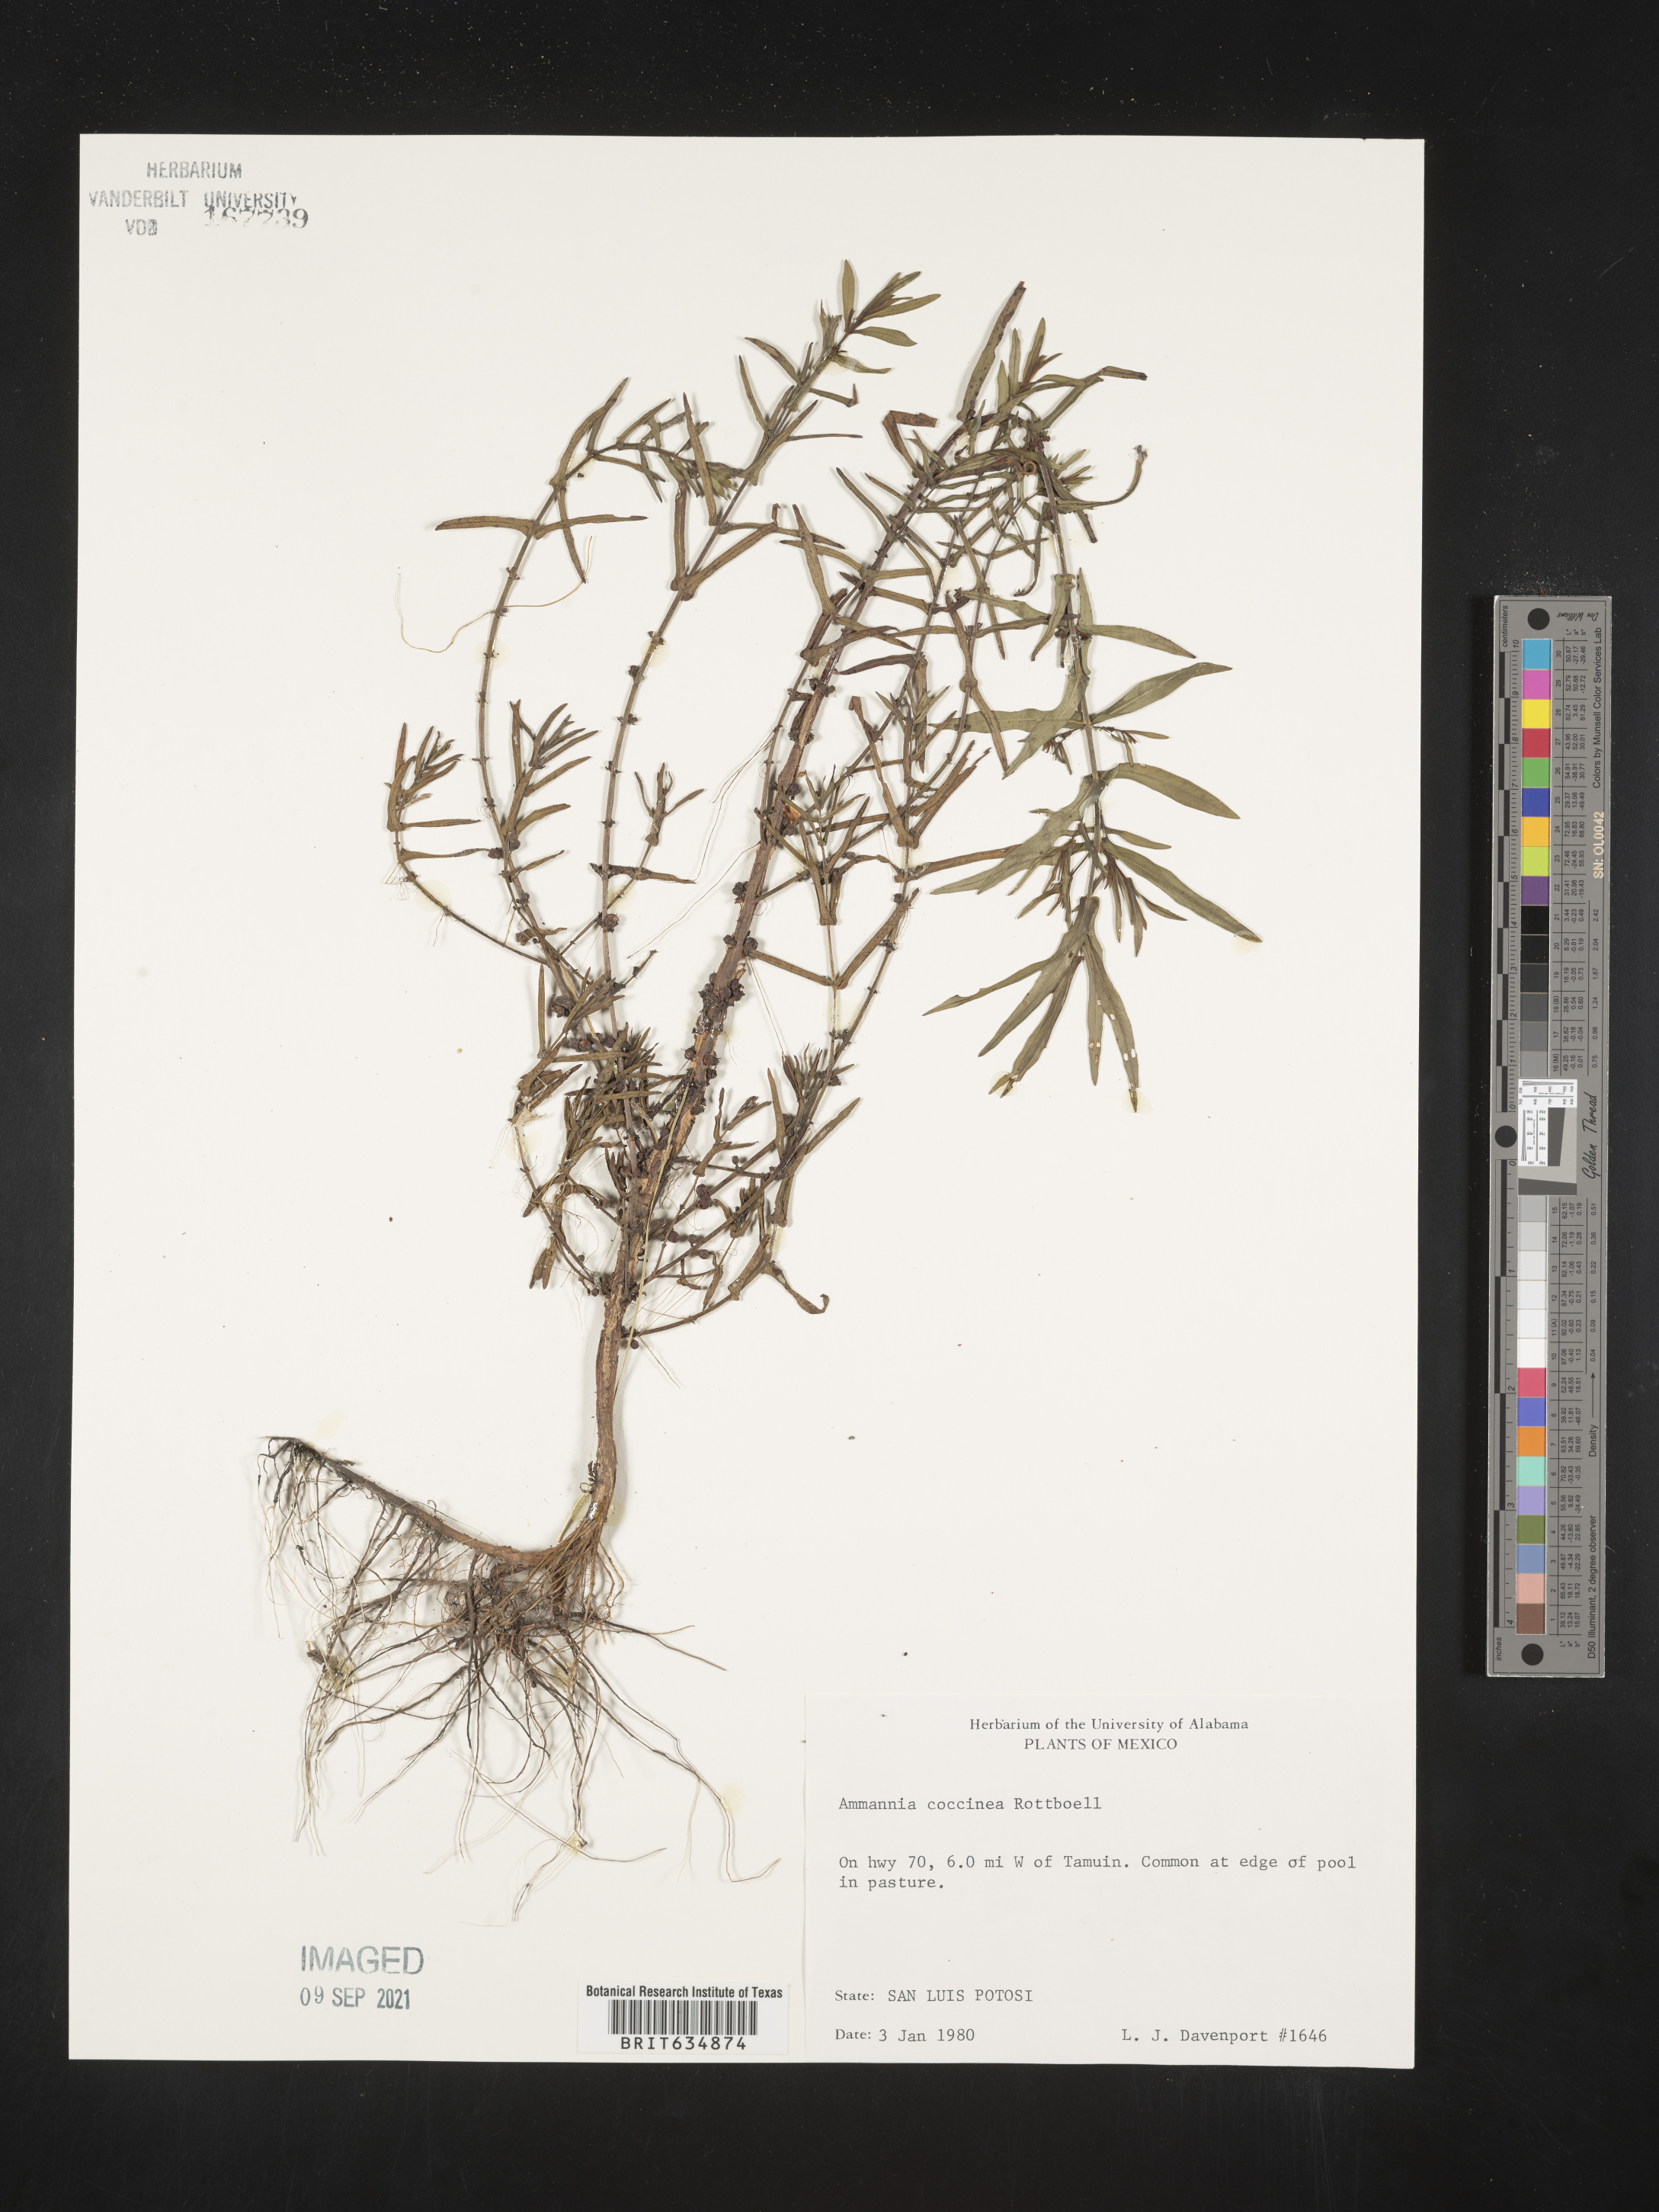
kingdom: Plantae
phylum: Tracheophyta
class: Magnoliopsida
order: Myrtales
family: Lythraceae
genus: Ammannia
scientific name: Ammannia
